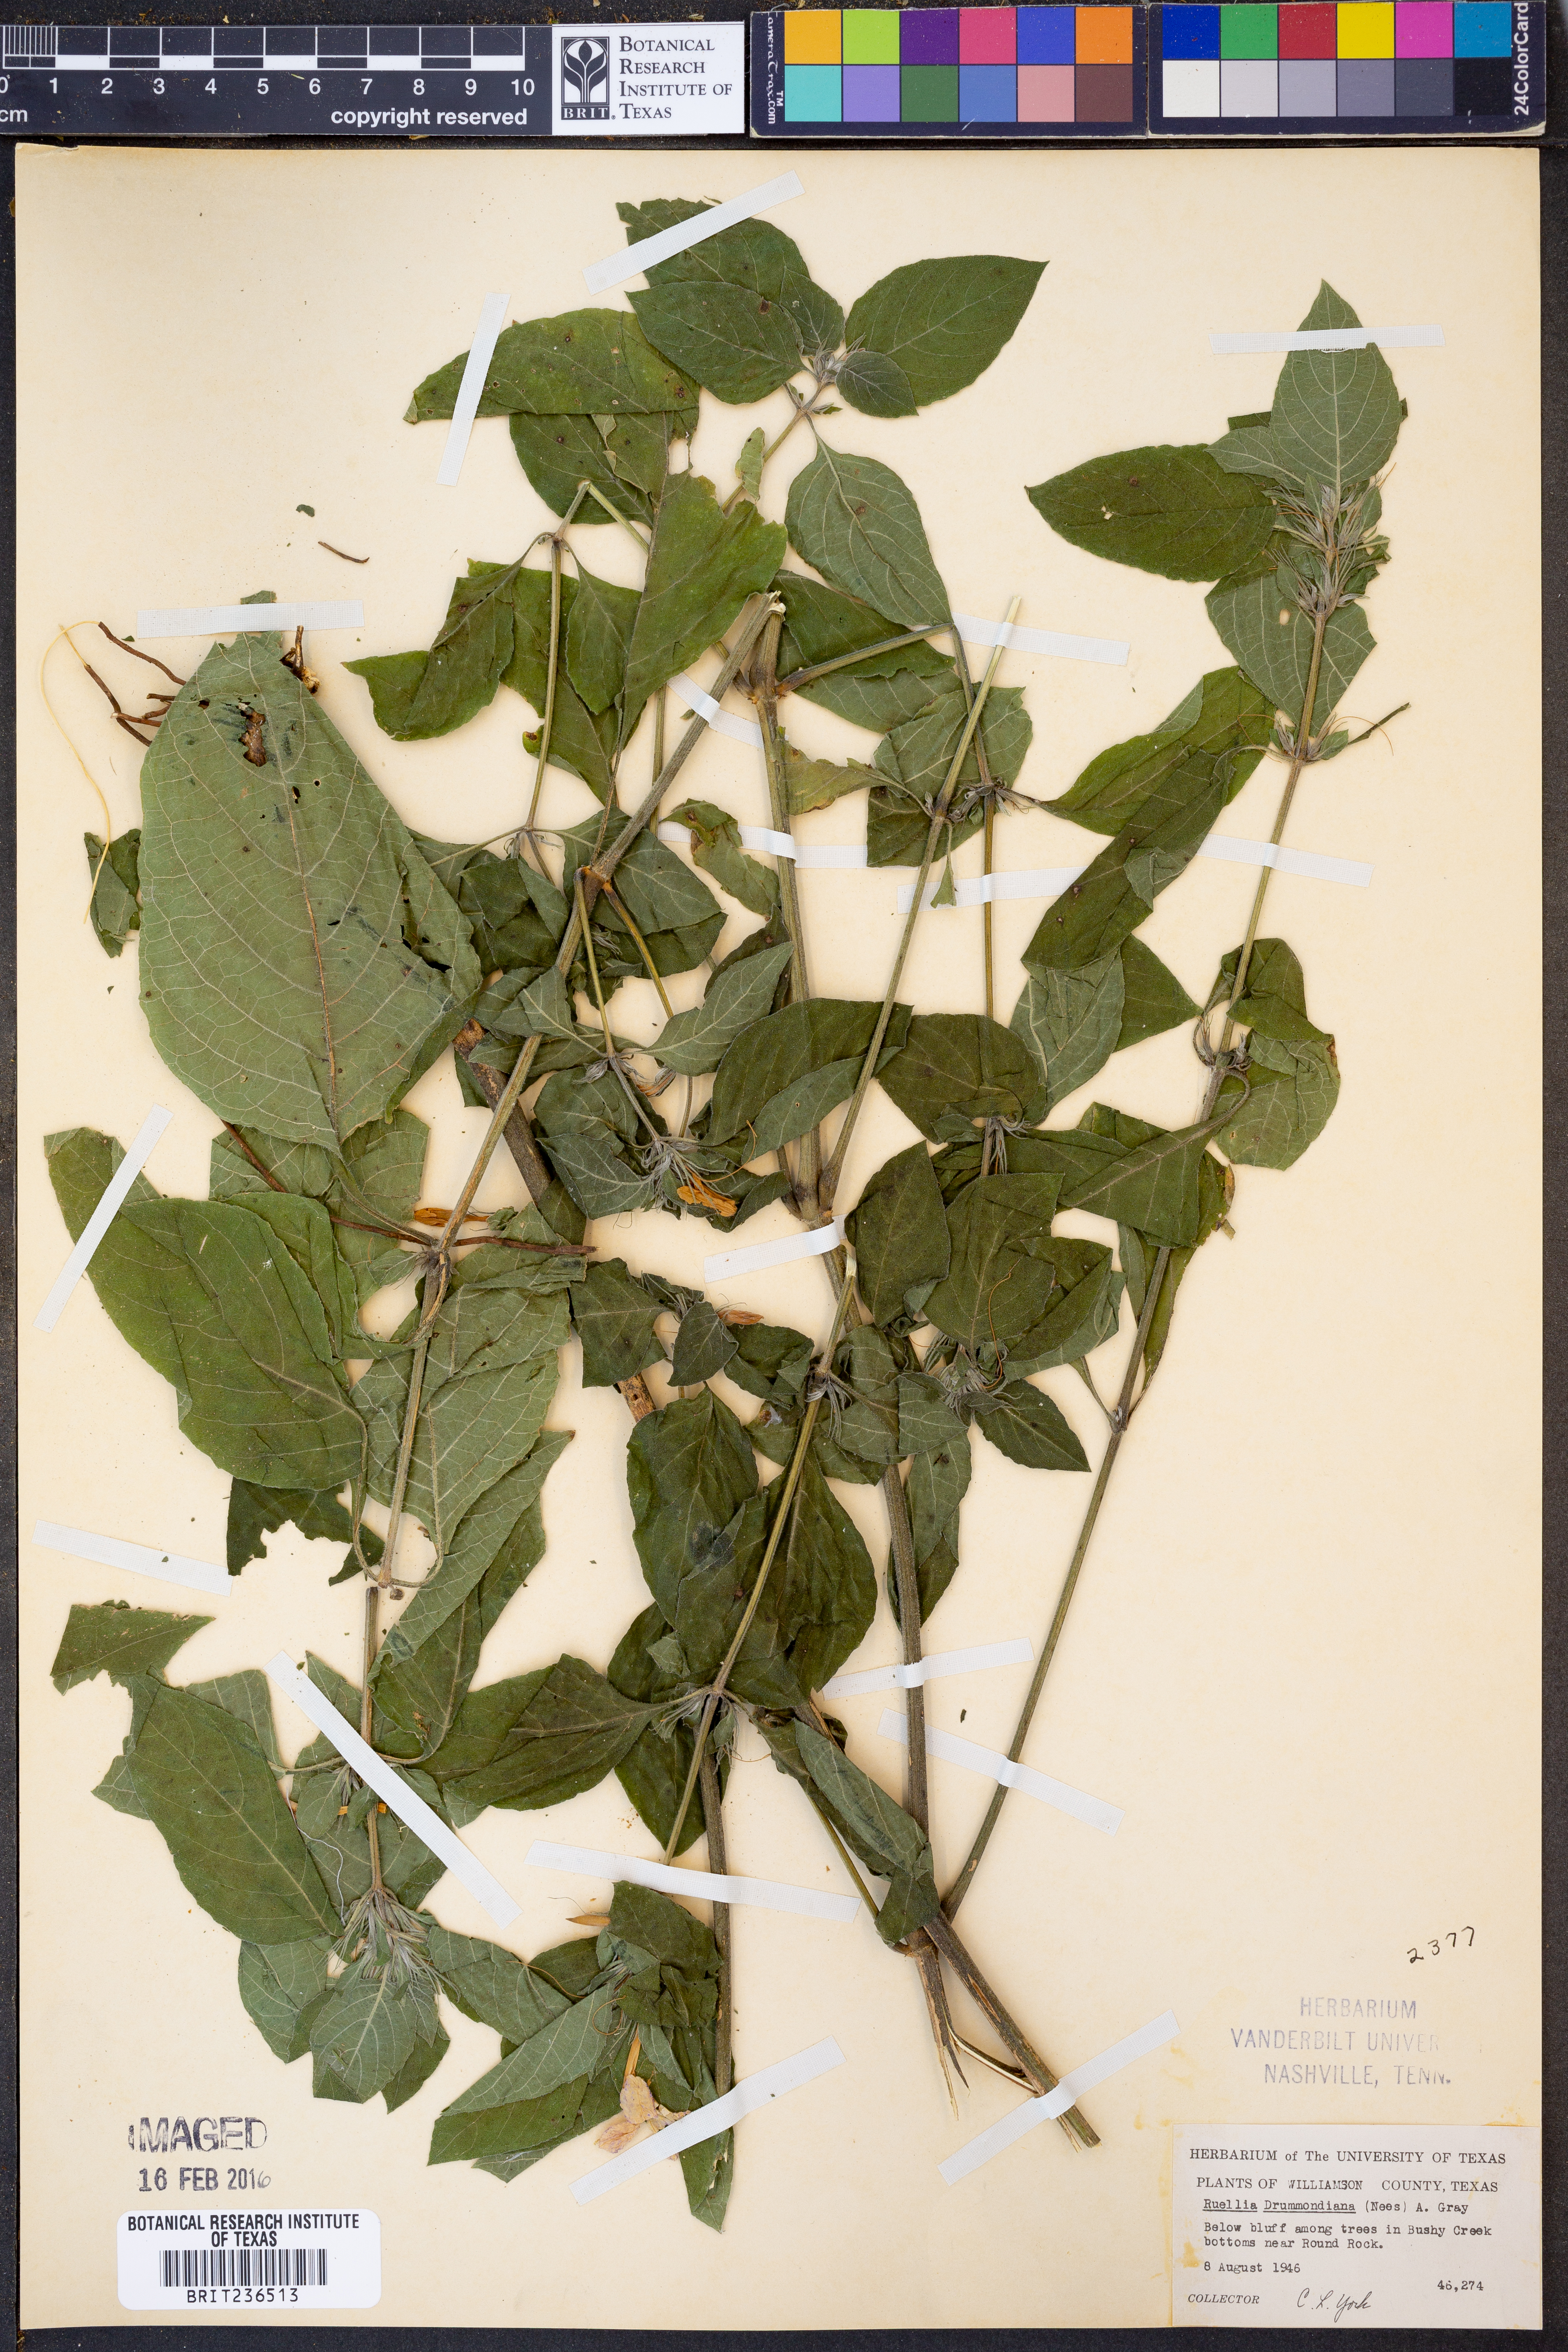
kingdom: Plantae
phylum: Tracheophyta
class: Magnoliopsida
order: Lamiales
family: Acanthaceae
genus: Ruellia
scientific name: Ruellia drummondiana
